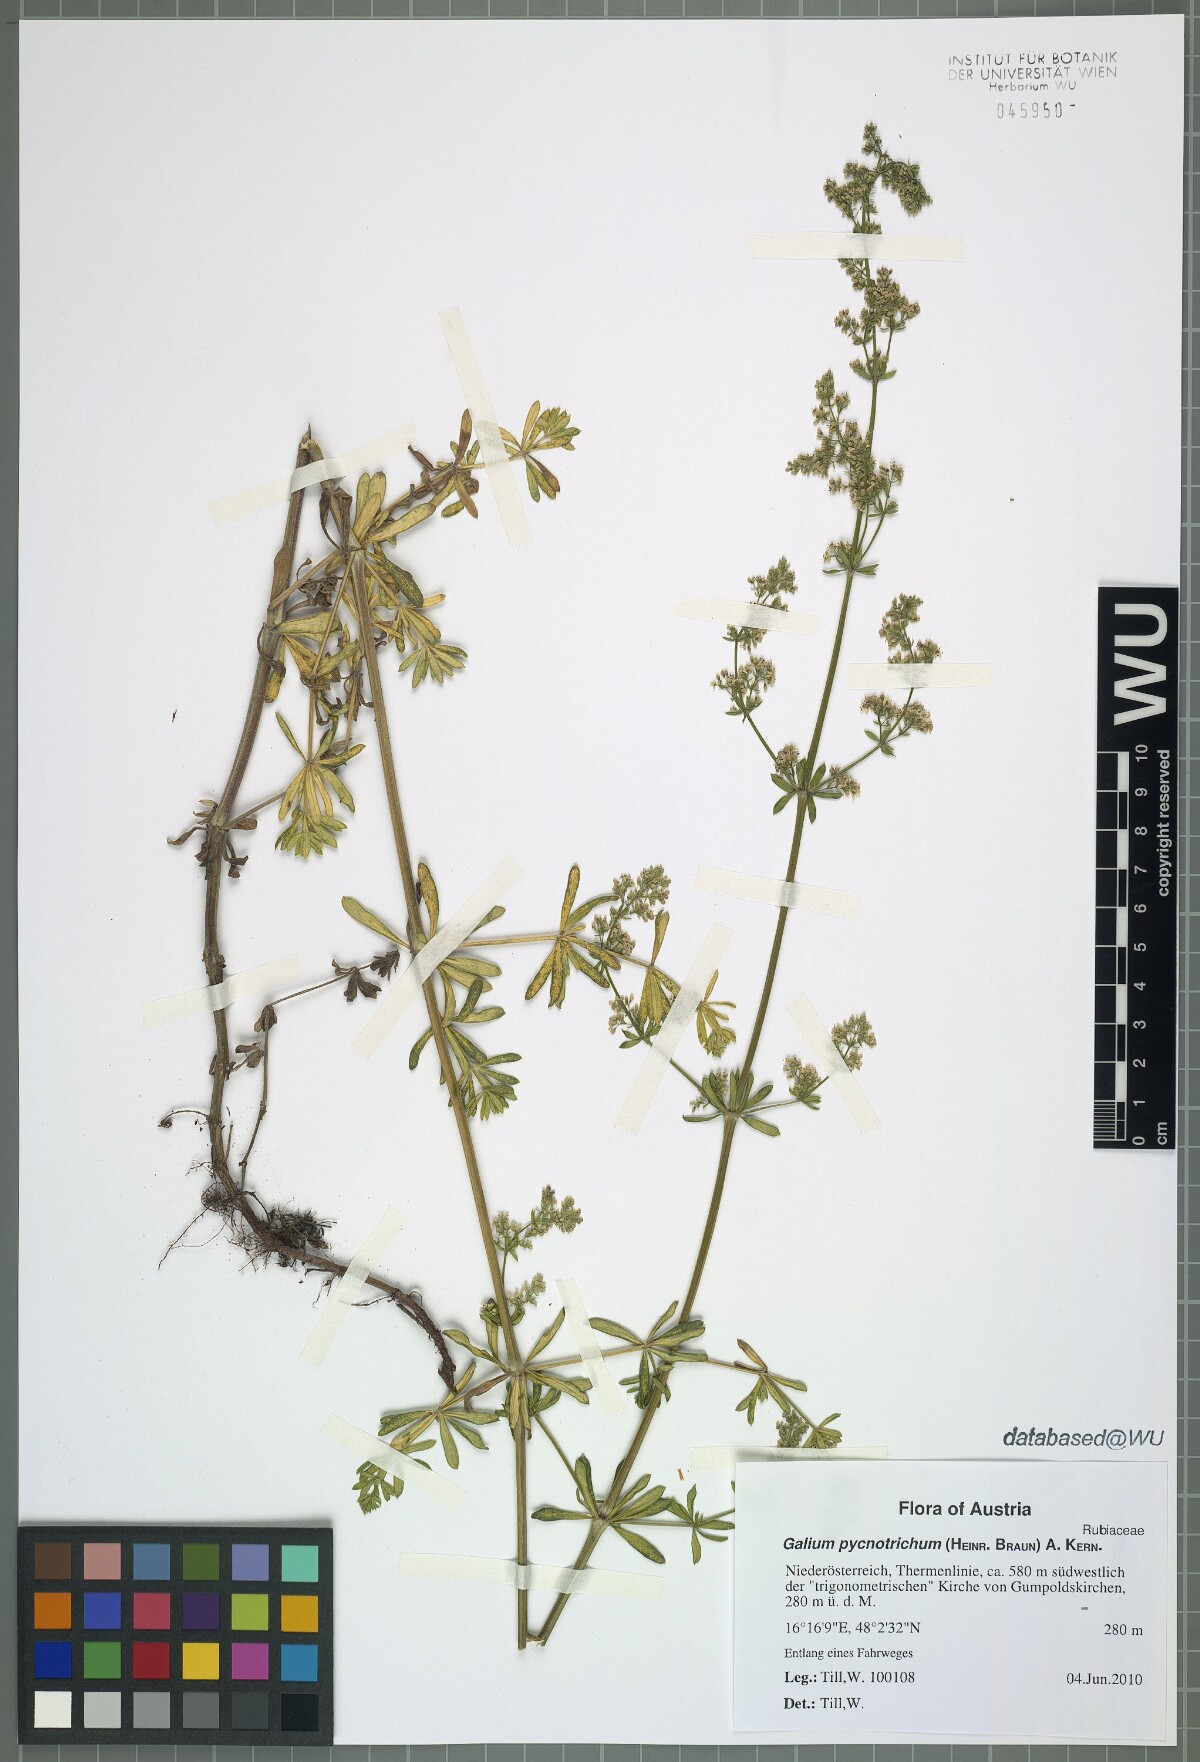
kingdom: Plantae
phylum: Tracheophyta
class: Magnoliopsida
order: Gentianales
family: Rubiaceae
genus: Galium
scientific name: Galium album
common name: White bedstraw
